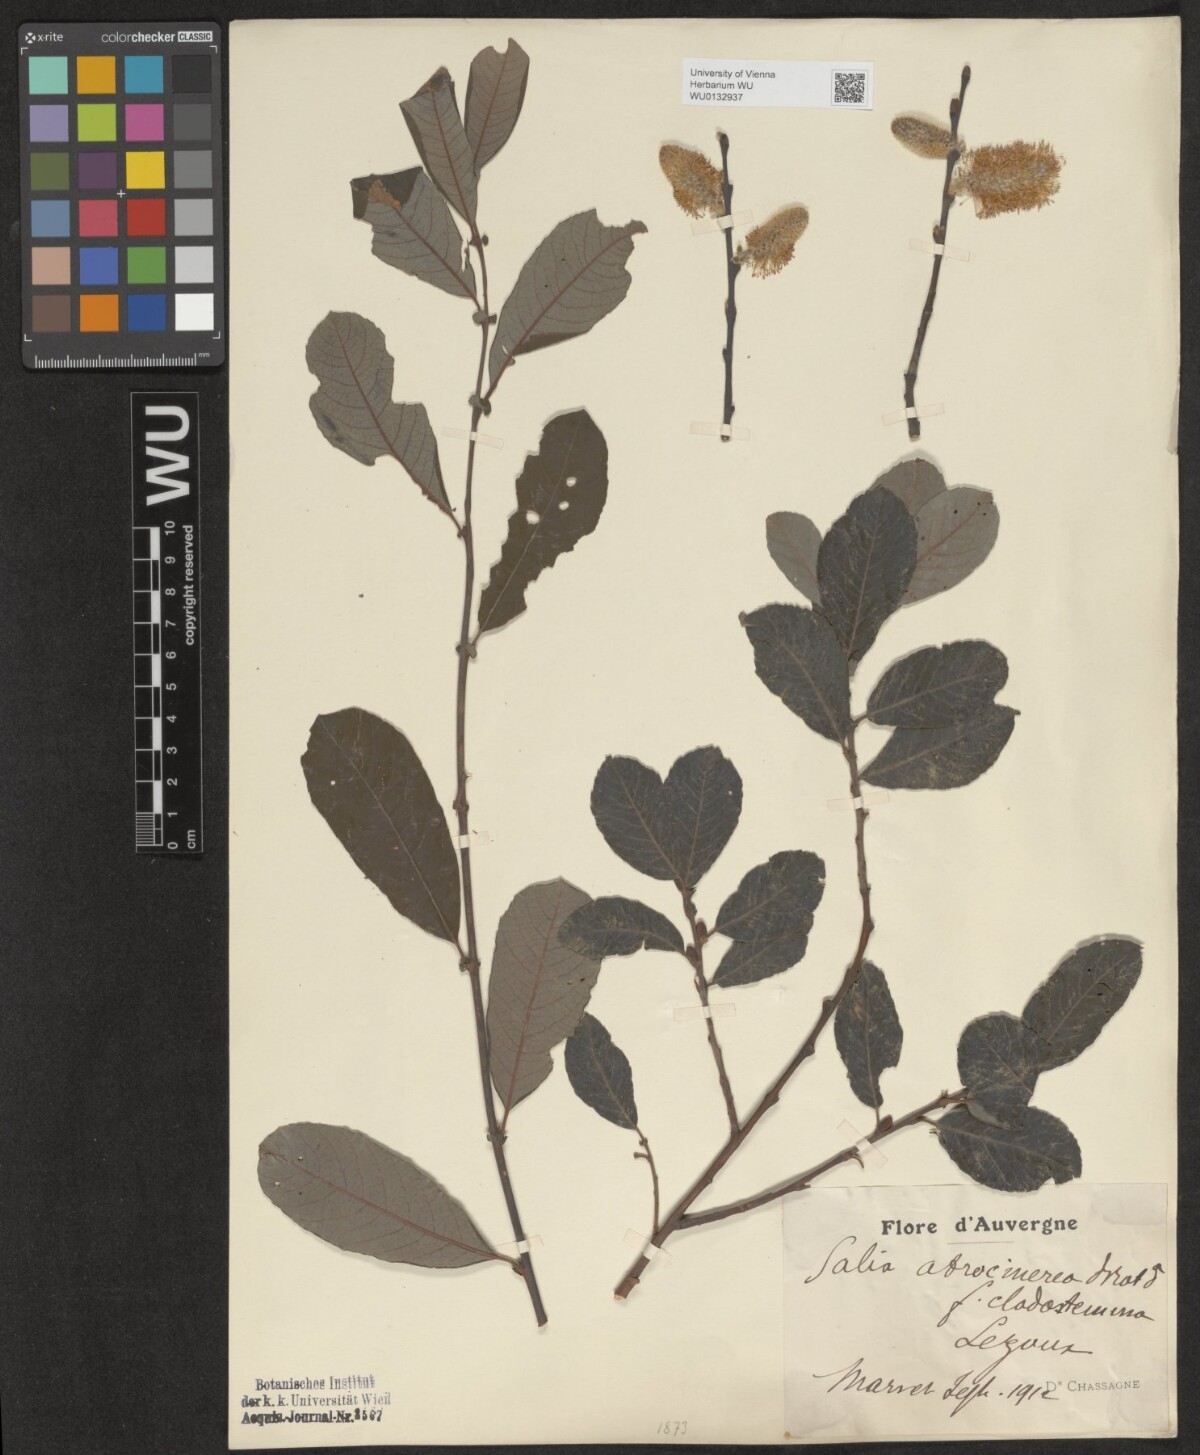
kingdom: Plantae
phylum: Tracheophyta
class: Magnoliopsida
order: Malpighiales
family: Salicaceae
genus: Salix
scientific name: Salix atrocinerea
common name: Rusty willow
